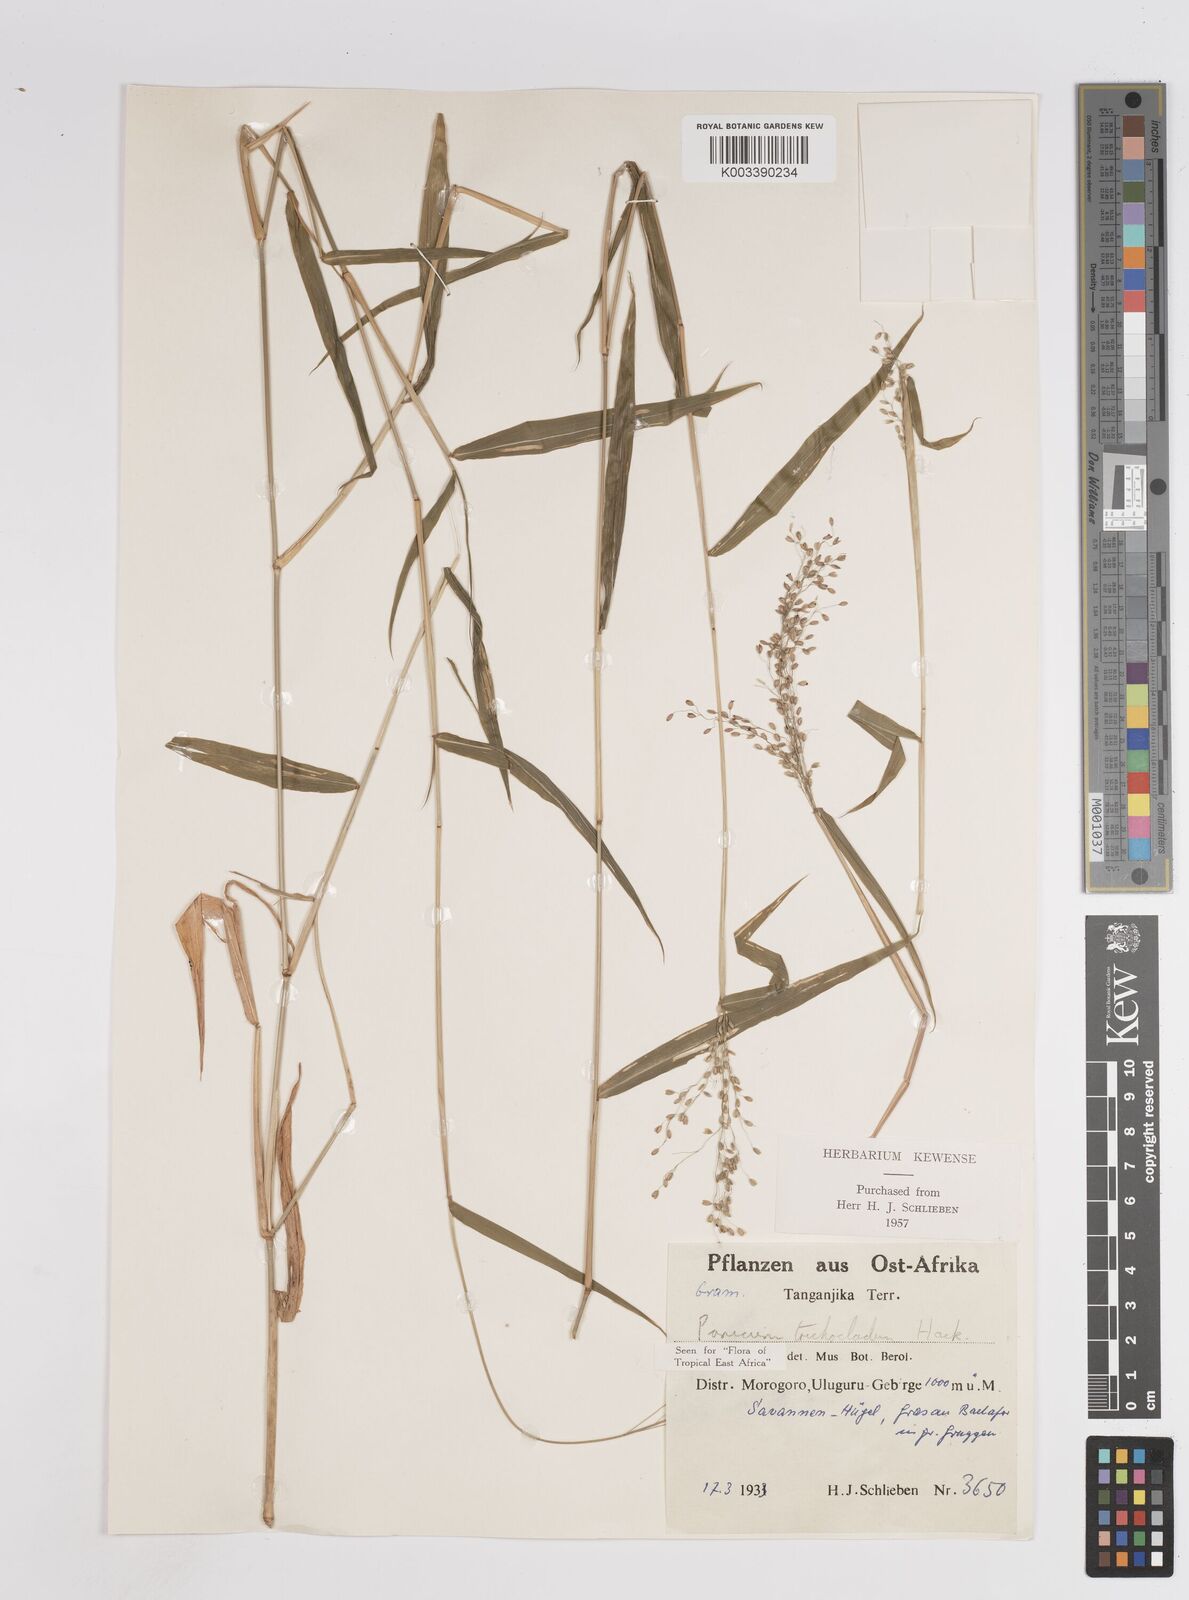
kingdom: Plantae
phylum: Tracheophyta
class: Liliopsida
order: Poales
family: Poaceae
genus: Panicum
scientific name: Panicum trichocladum
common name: Donkey grass
